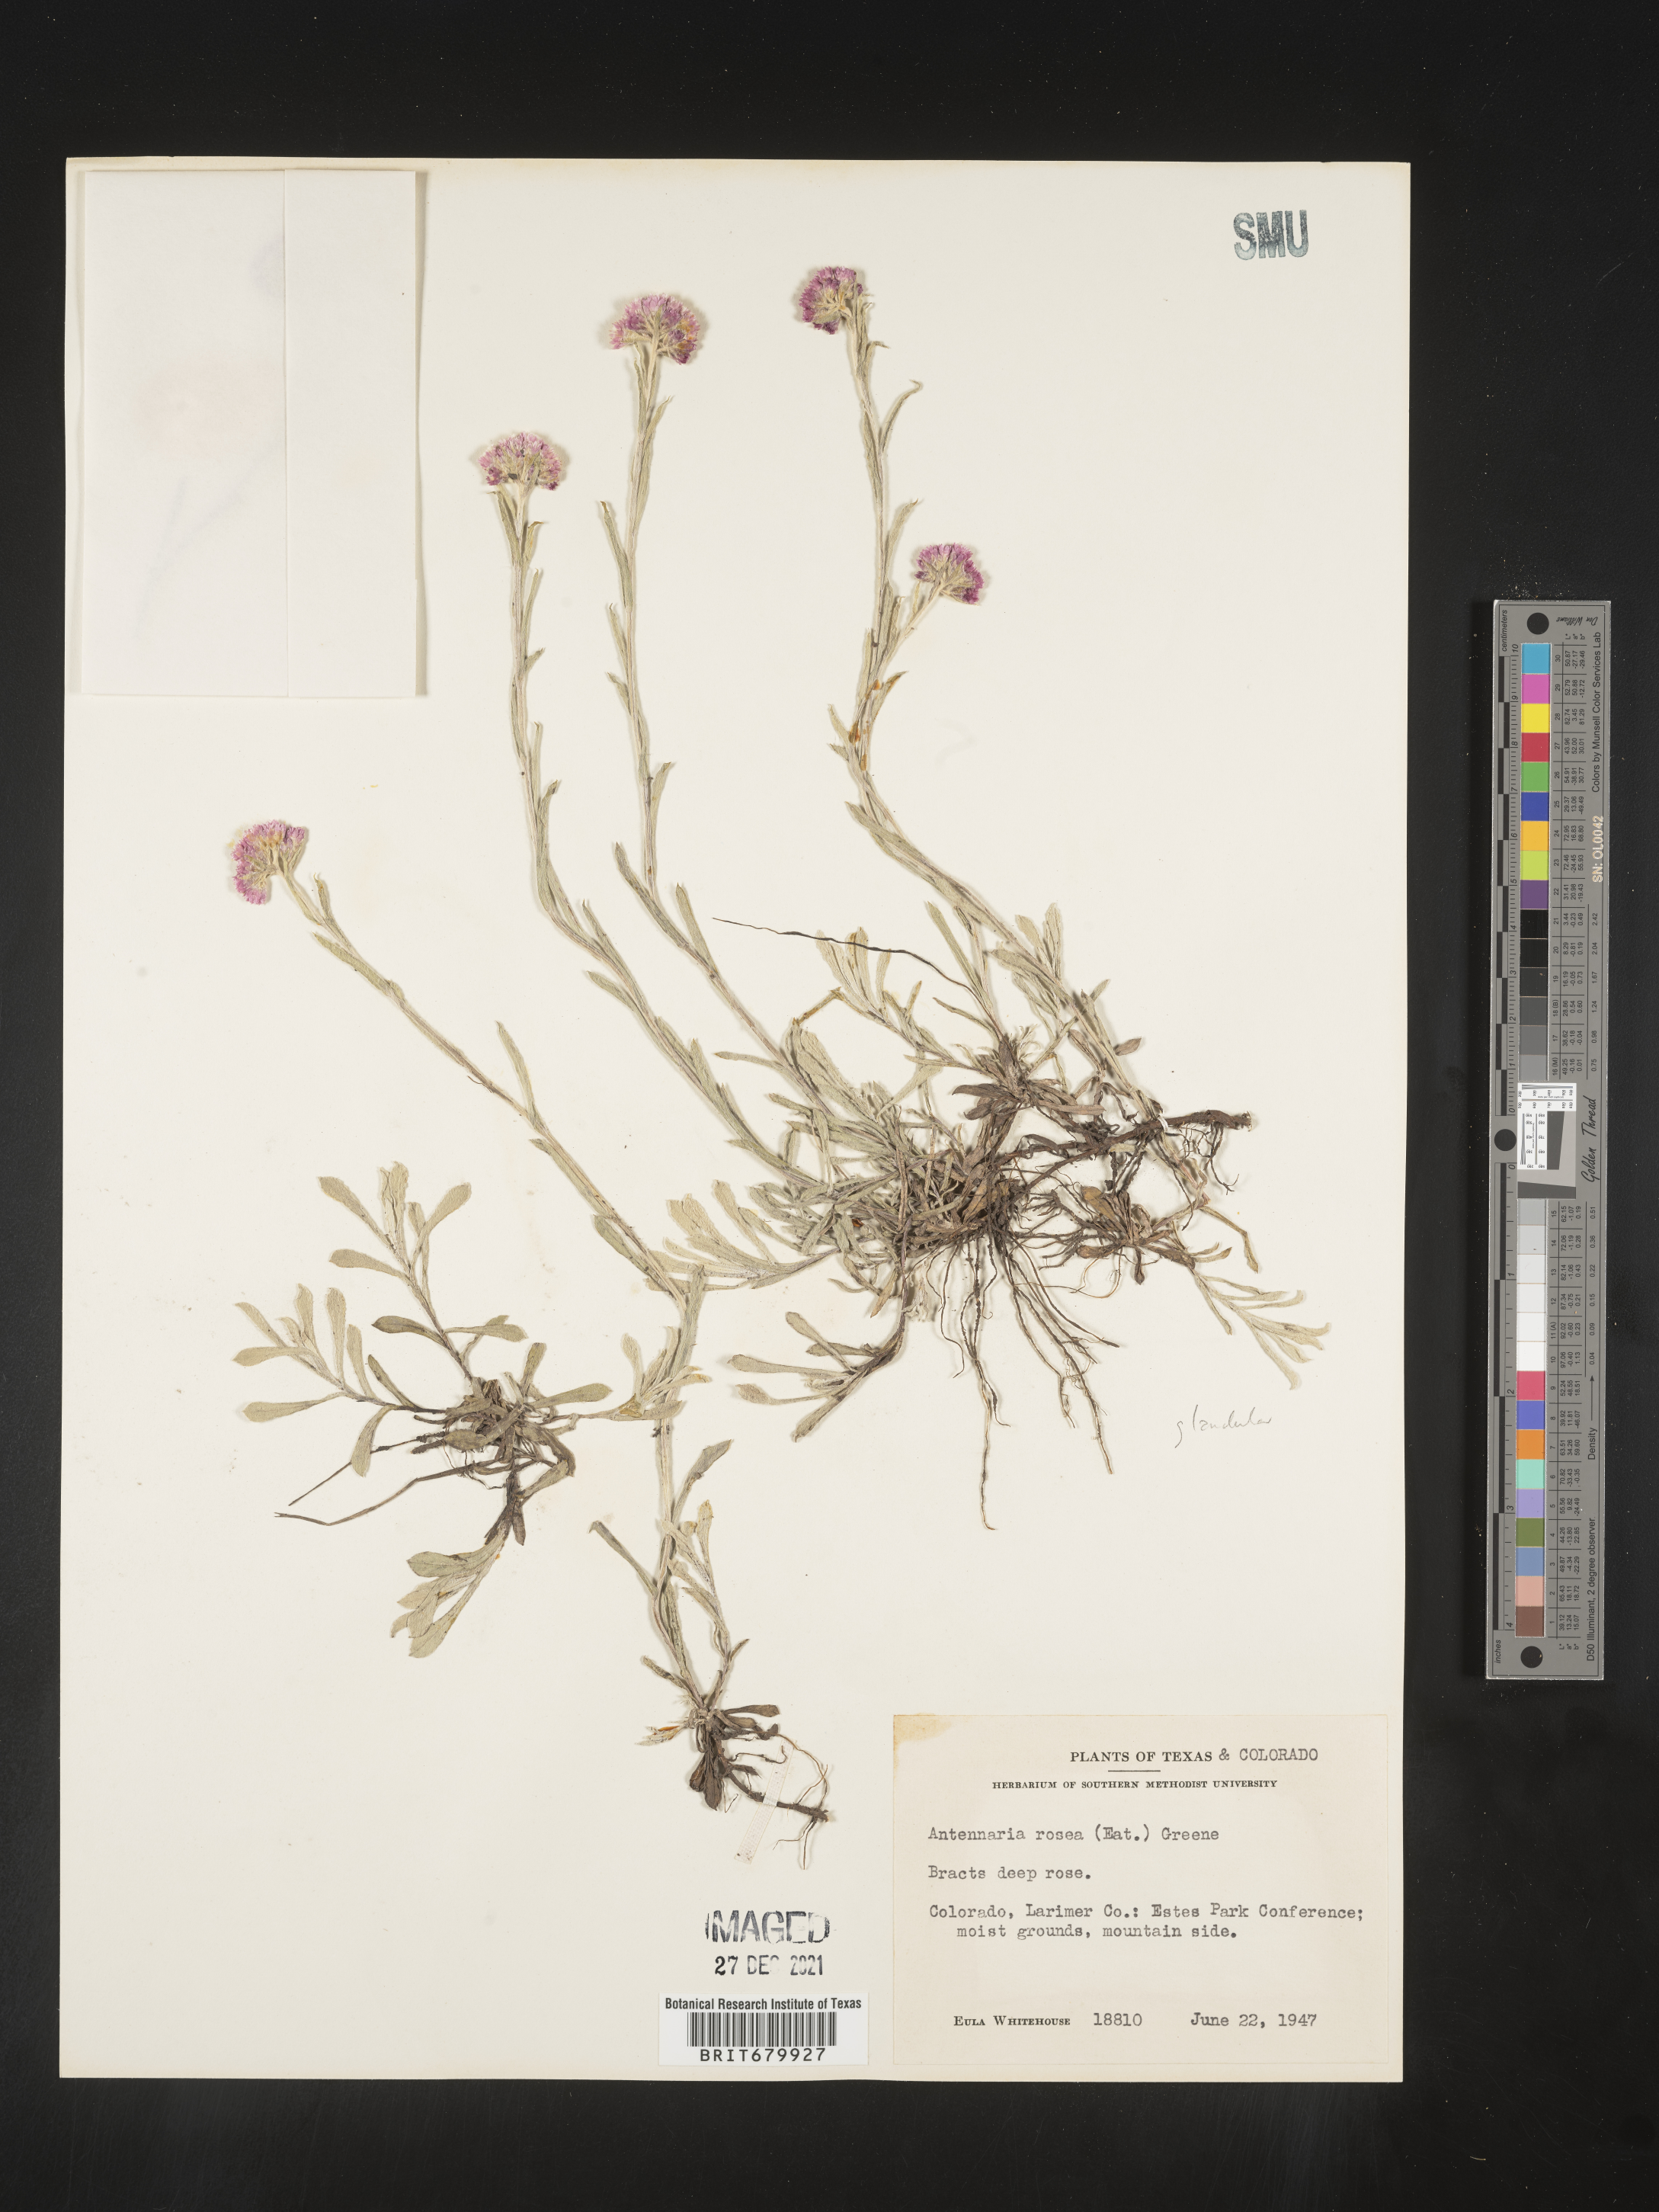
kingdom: Plantae
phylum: Tracheophyta
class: Magnoliopsida
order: Asterales
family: Asteraceae
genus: Antennaria
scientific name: Antennaria rosea
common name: Rosy pussytoes
